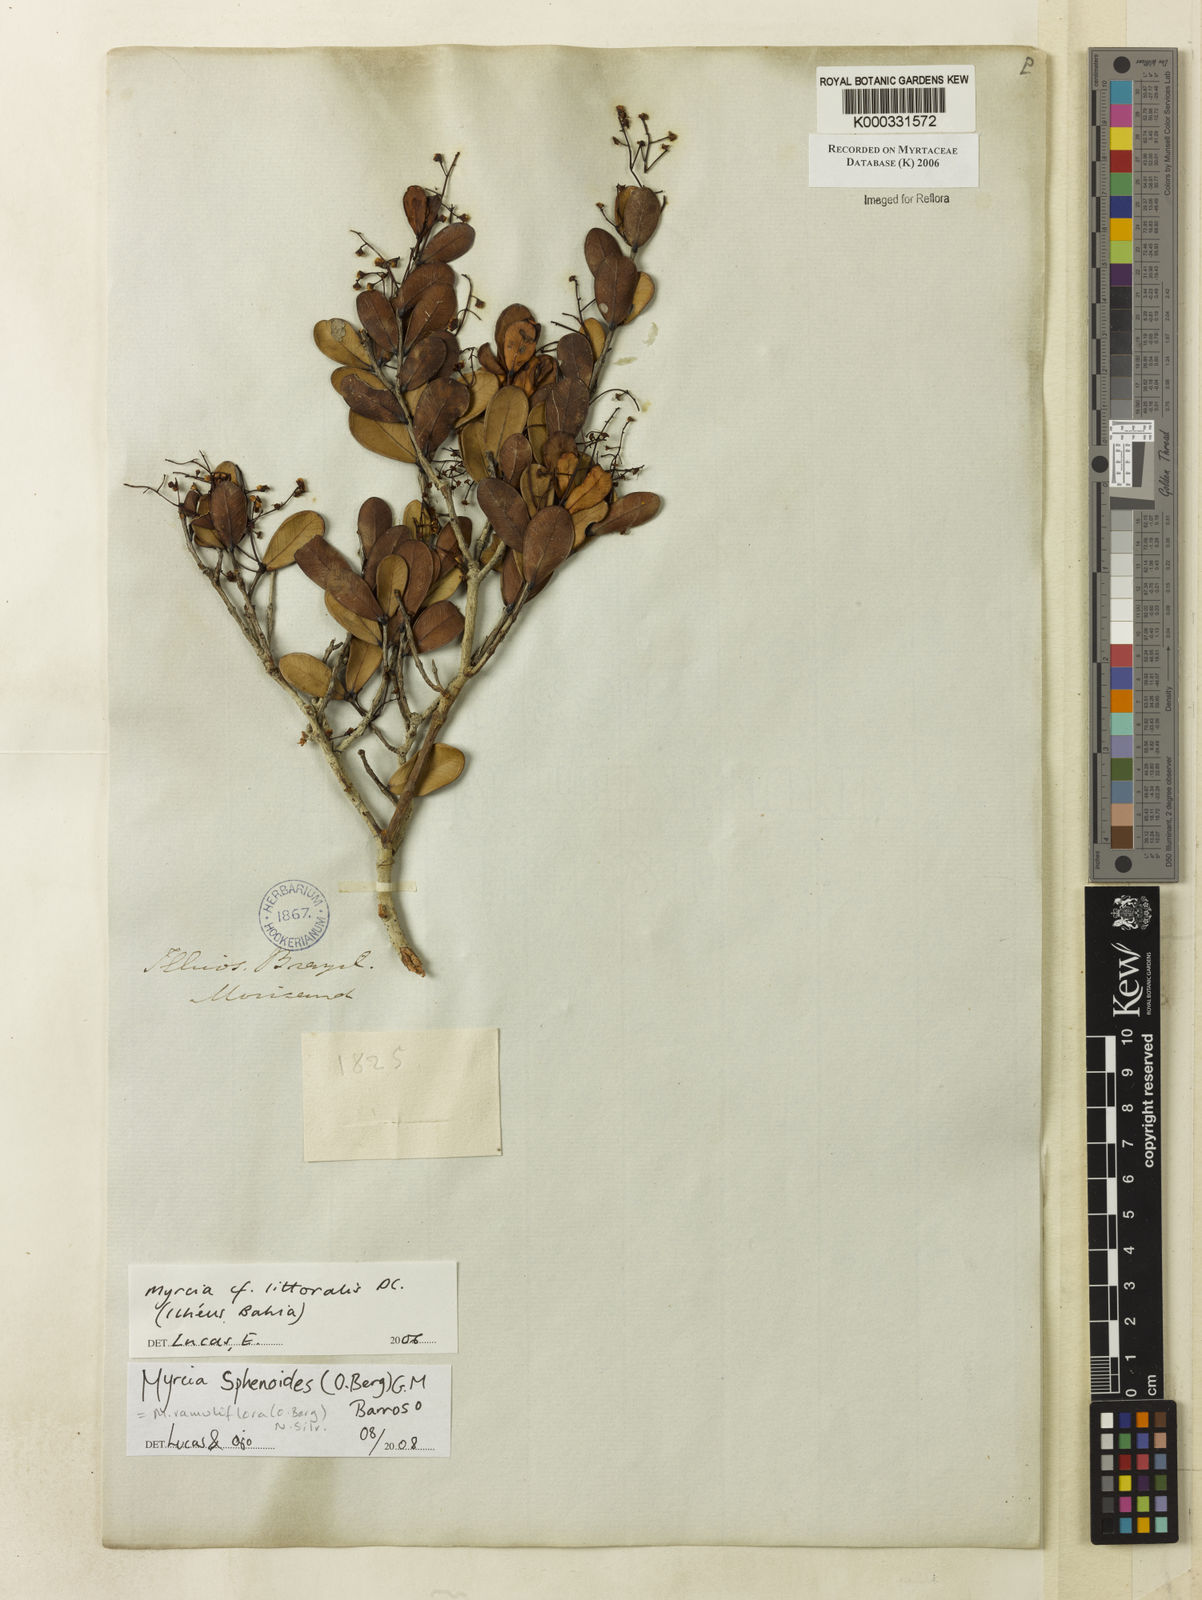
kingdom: Plantae
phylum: Tracheophyta
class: Magnoliopsida
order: Myrtales
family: Myrtaceae
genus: Myrcia
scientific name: Myrcia littoralis
